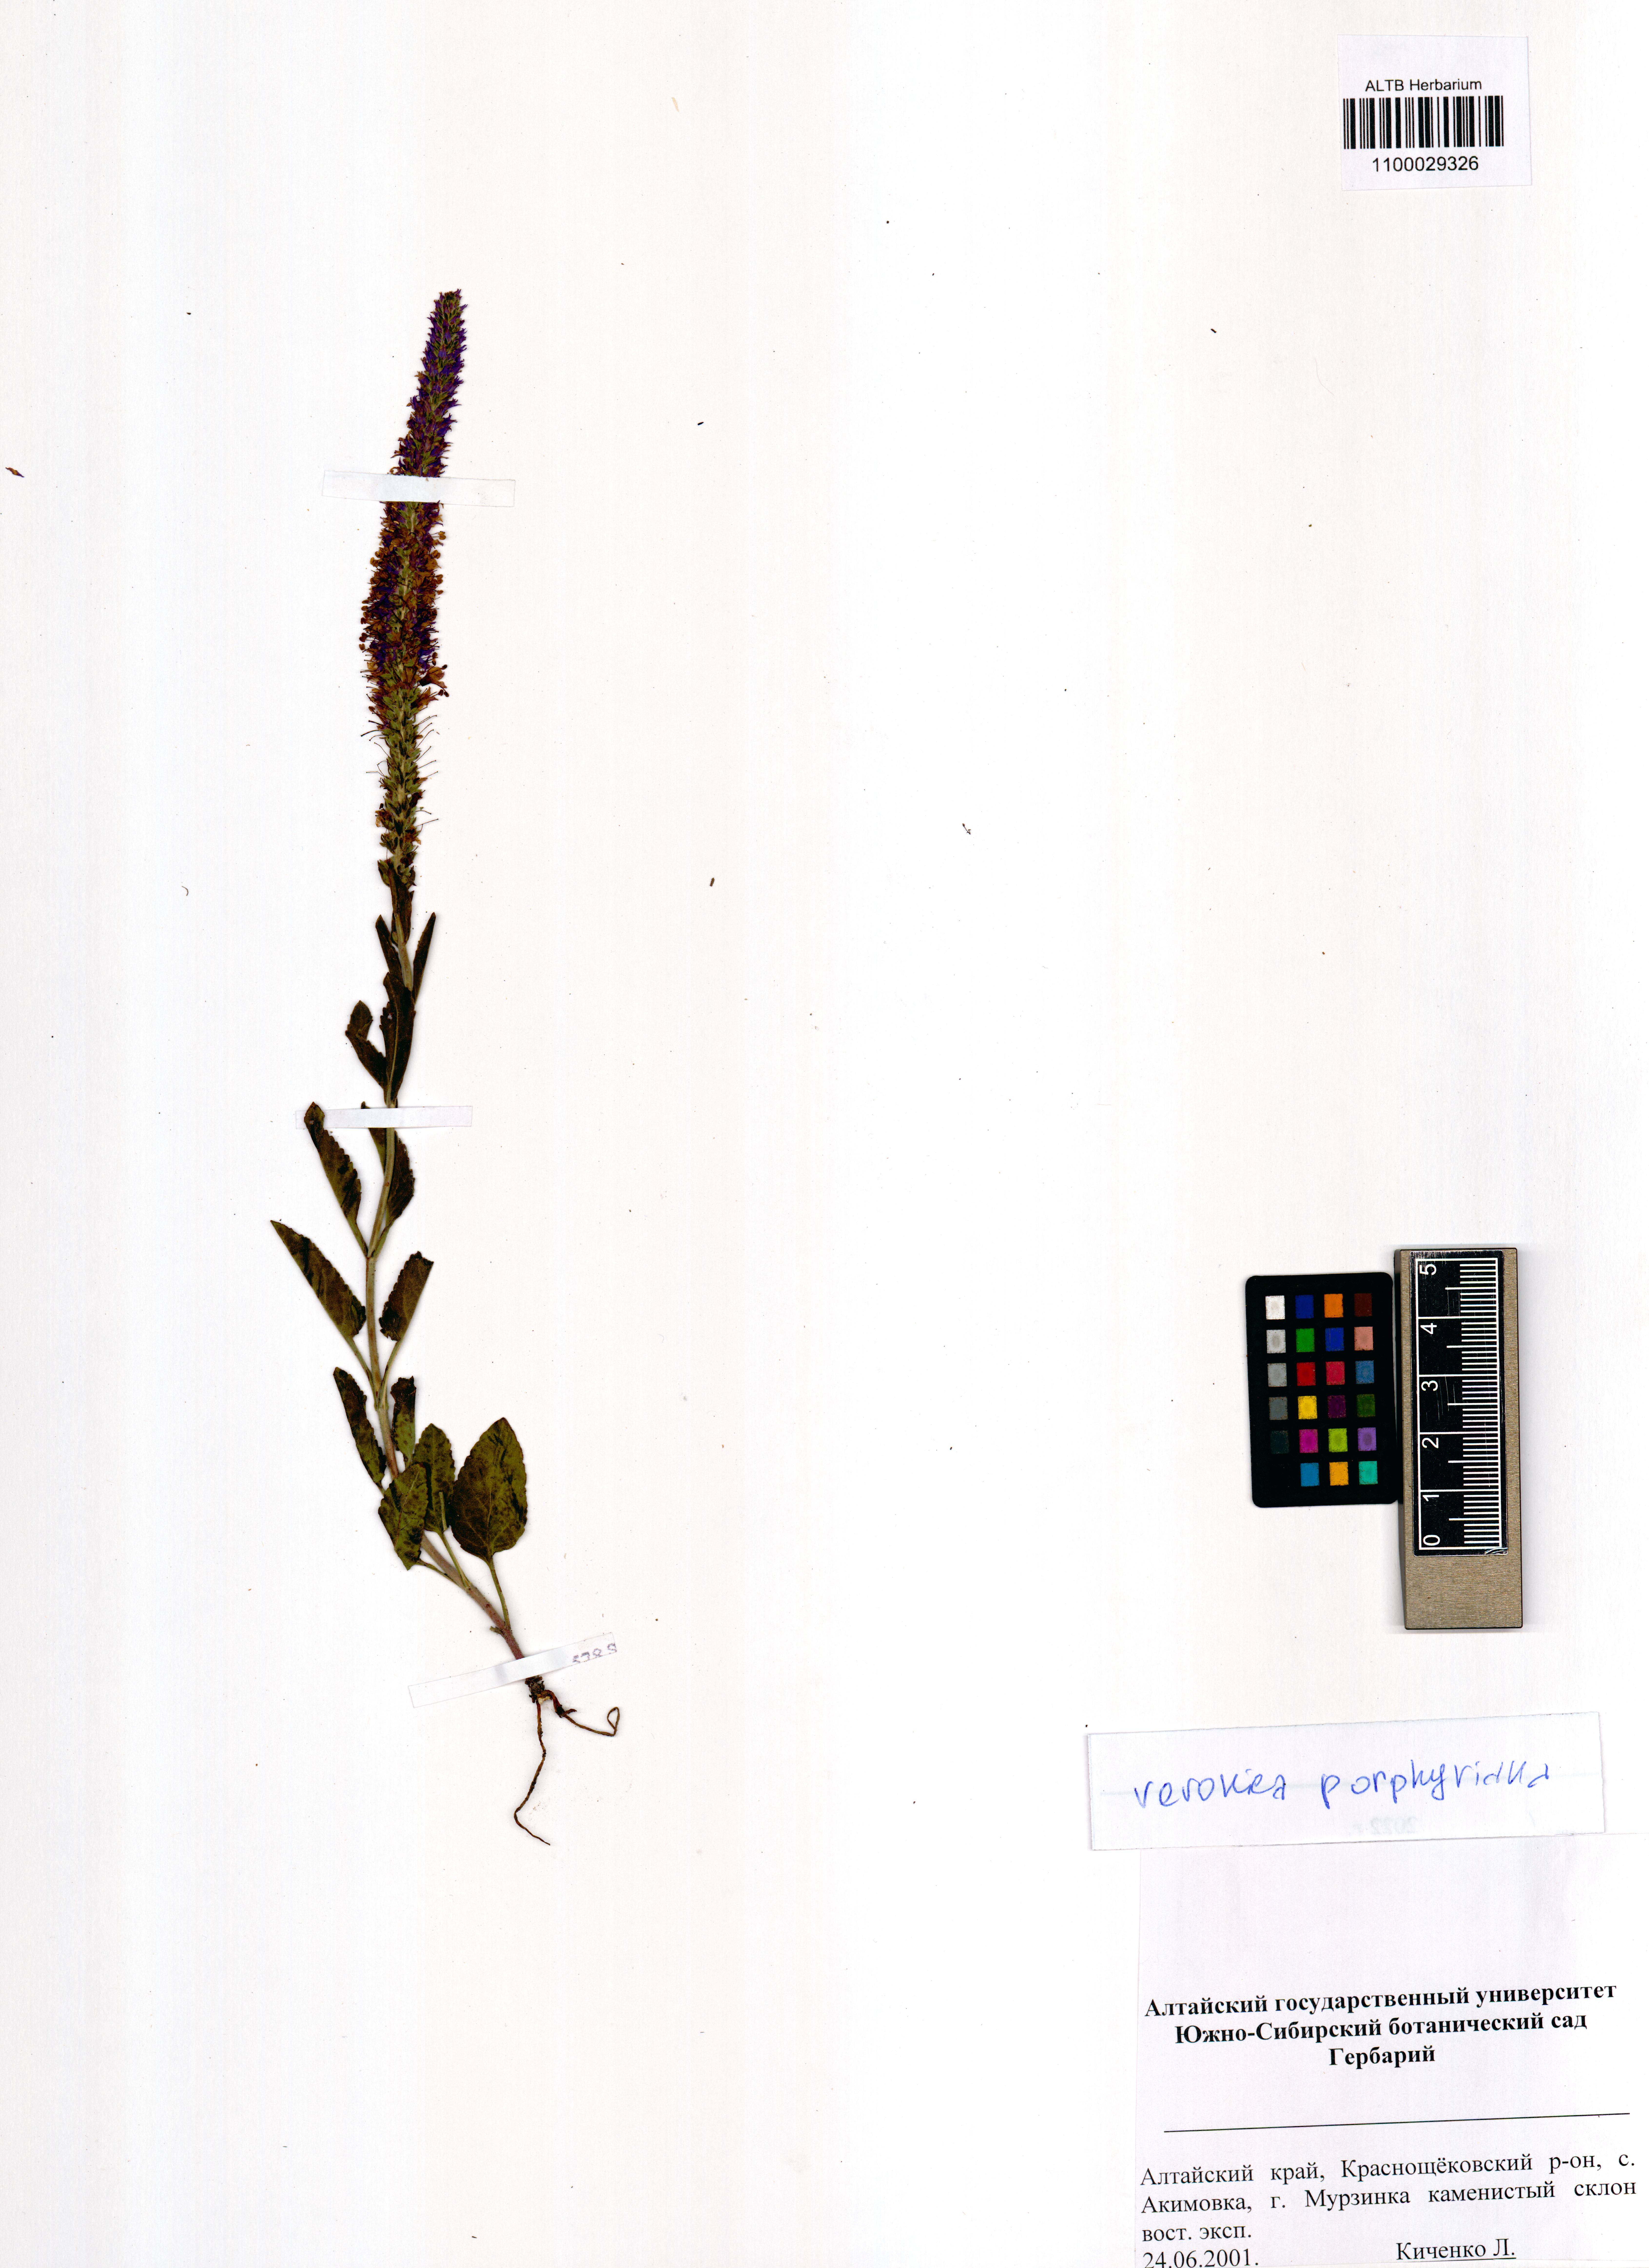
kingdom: Plantae
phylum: Tracheophyta
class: Magnoliopsida
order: Lamiales
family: Plantaginaceae
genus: Veronica
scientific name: Veronica porphyriana
